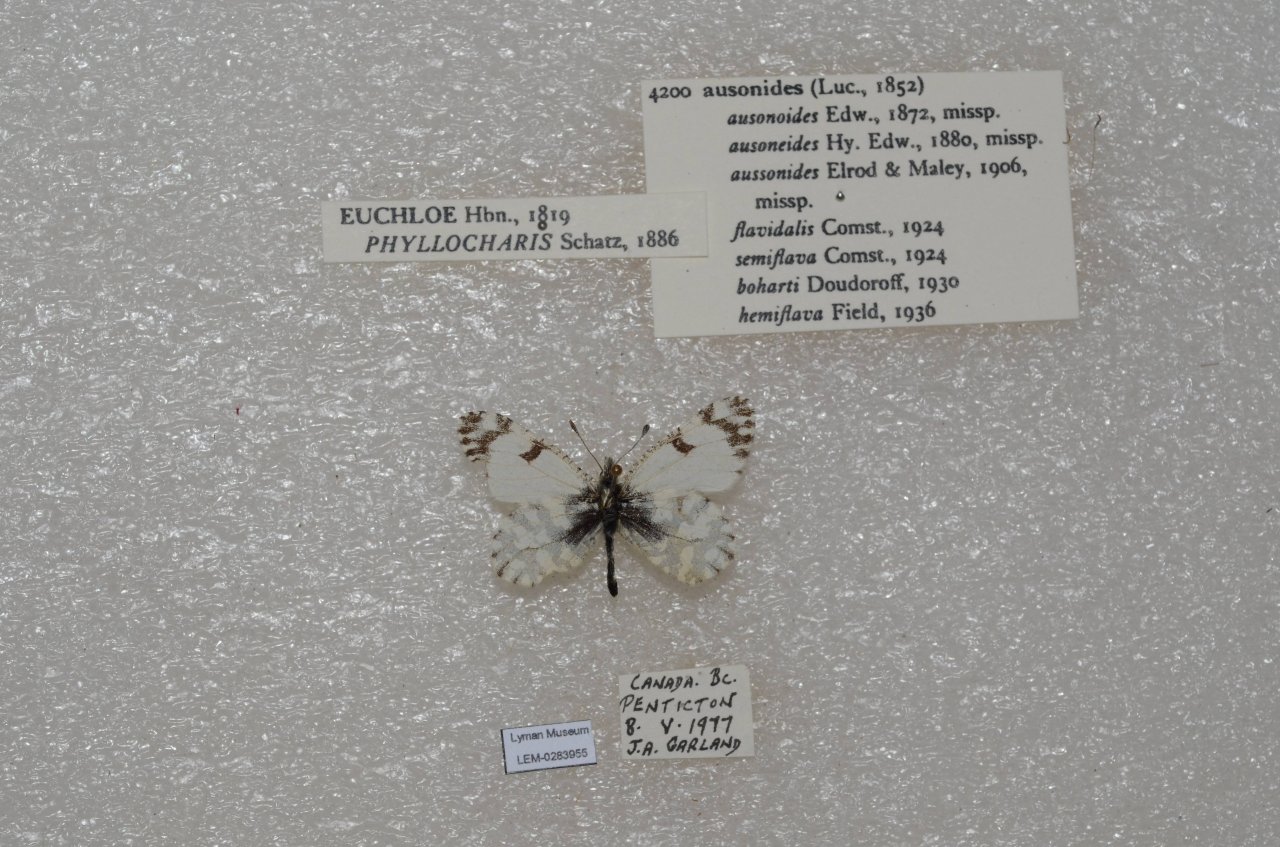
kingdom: Animalia
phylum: Arthropoda
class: Insecta
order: Lepidoptera
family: Pieridae
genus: Euchloe
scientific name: Euchloe ausonides
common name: Large Marble
